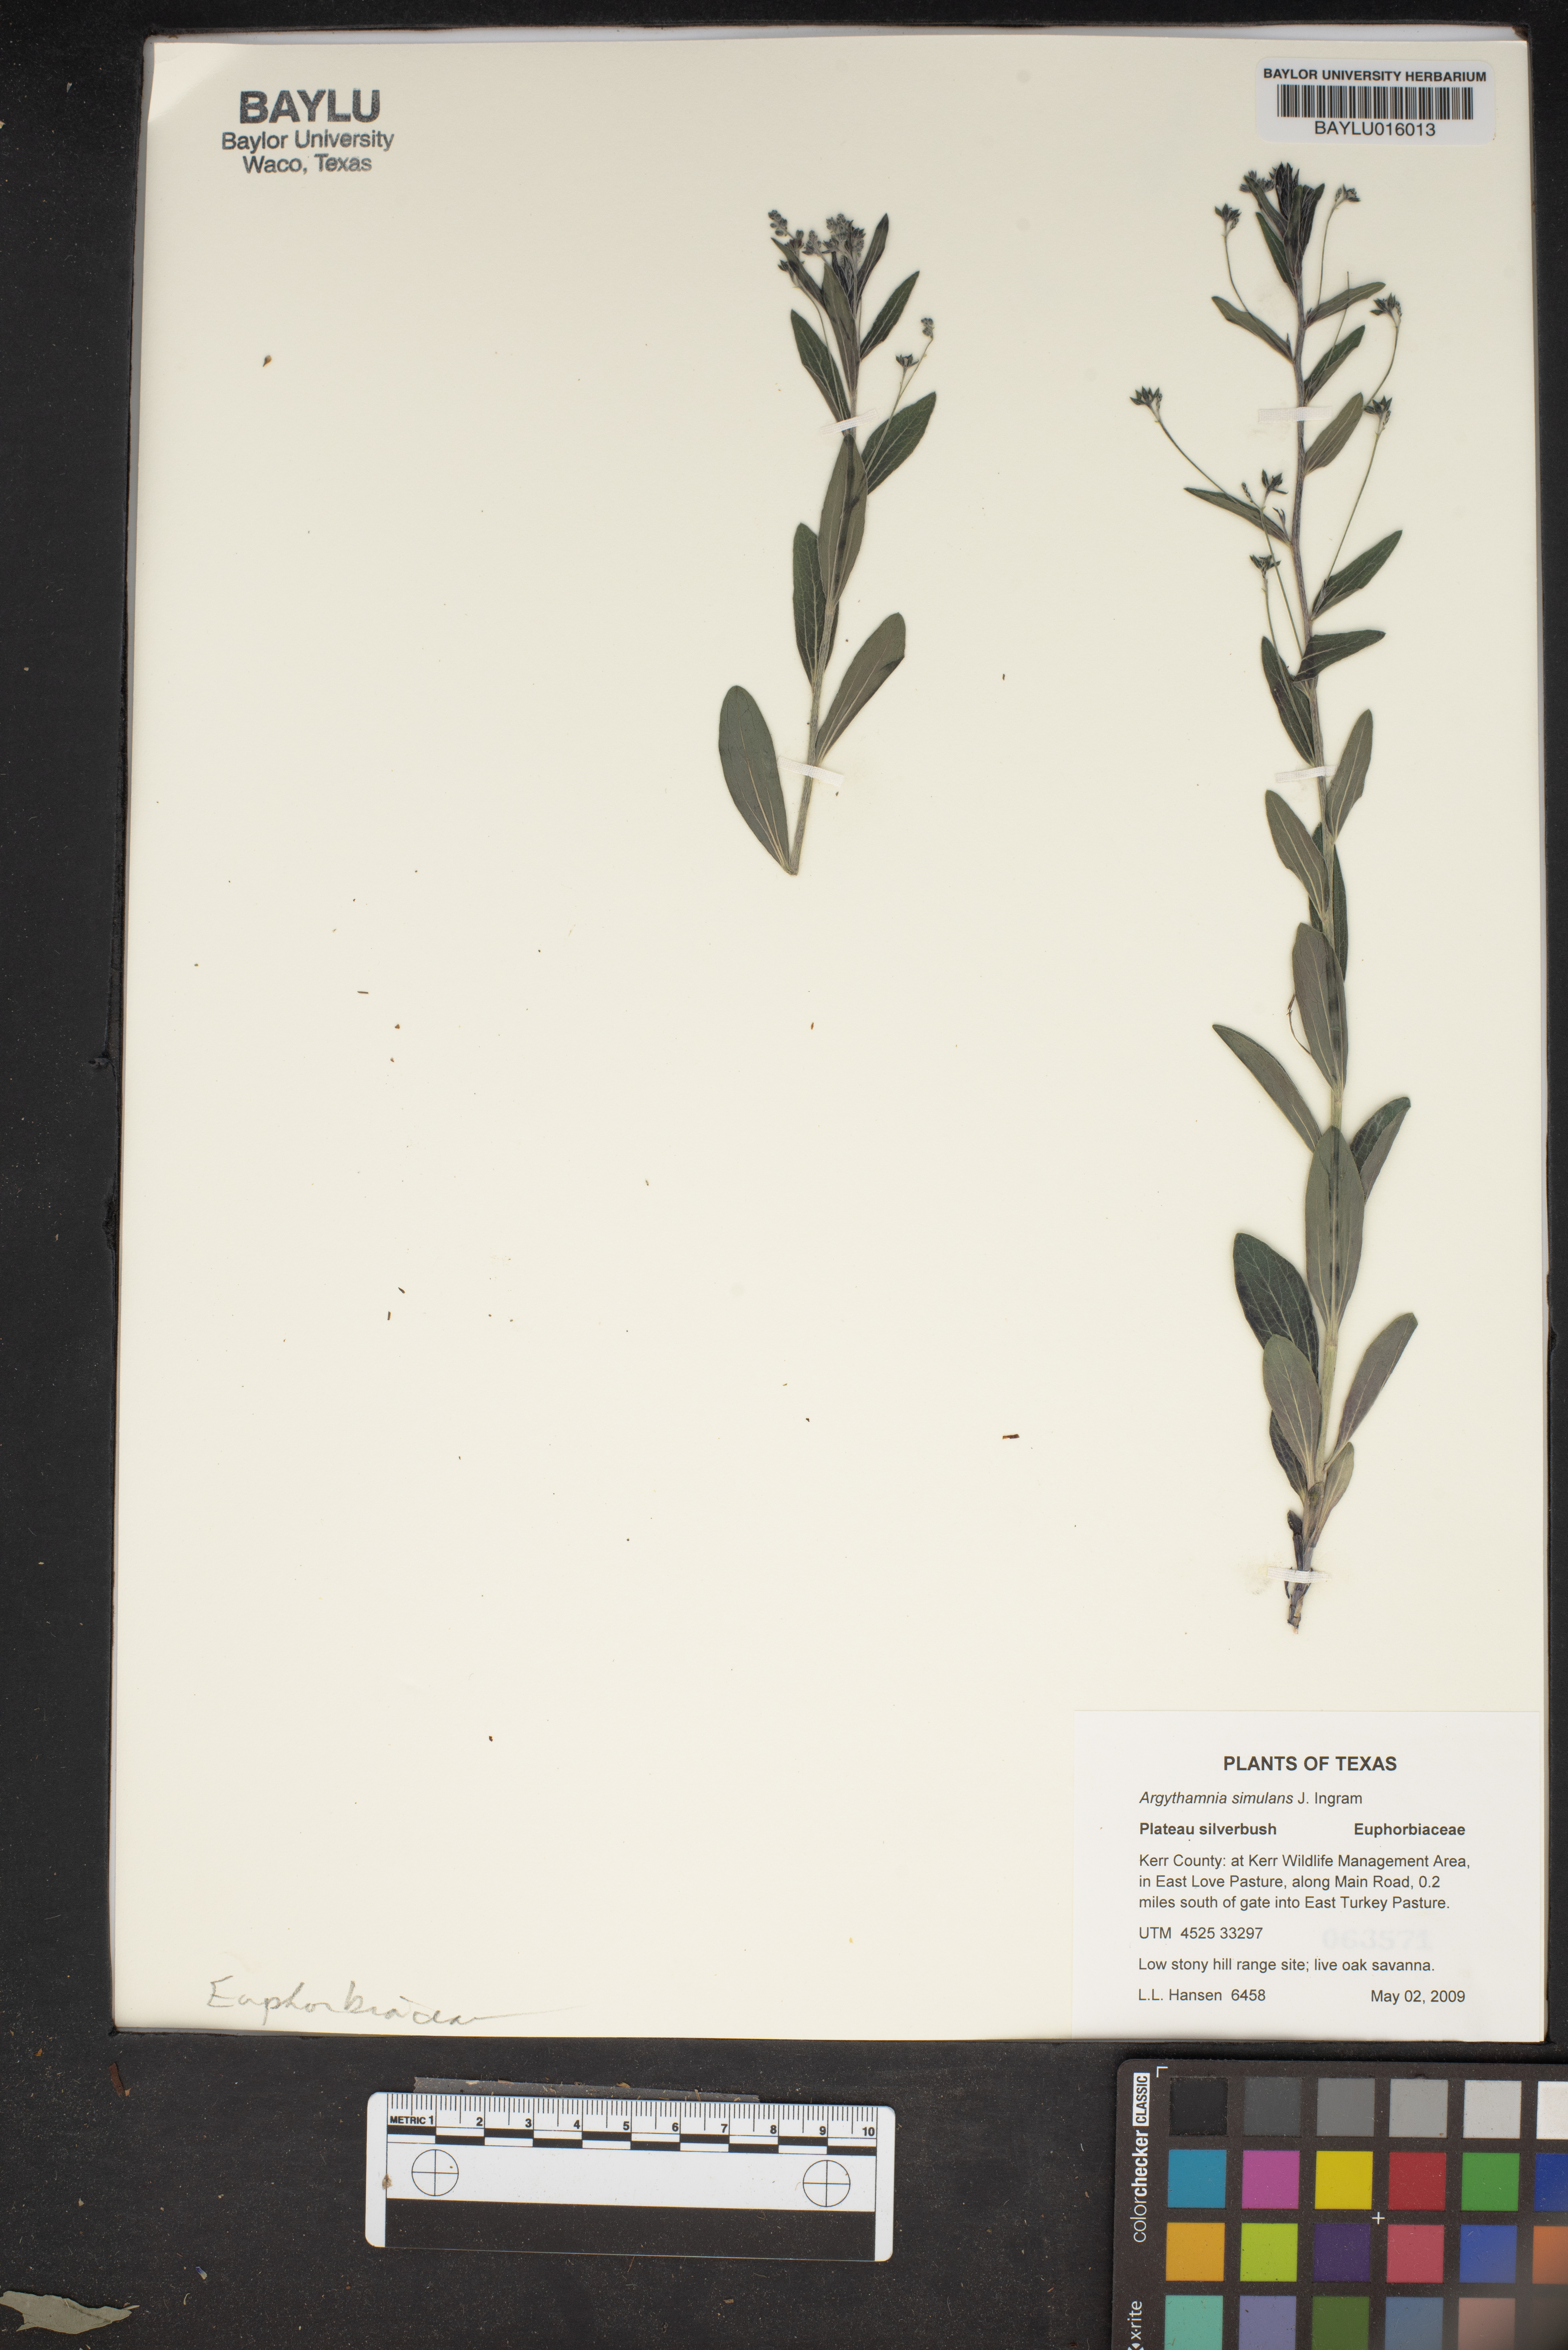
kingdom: Plantae
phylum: Tracheophyta
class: Magnoliopsida
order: Malpighiales
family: Euphorbiaceae
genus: Ditaxis
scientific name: Ditaxis simulans
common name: Plateau silverbush
